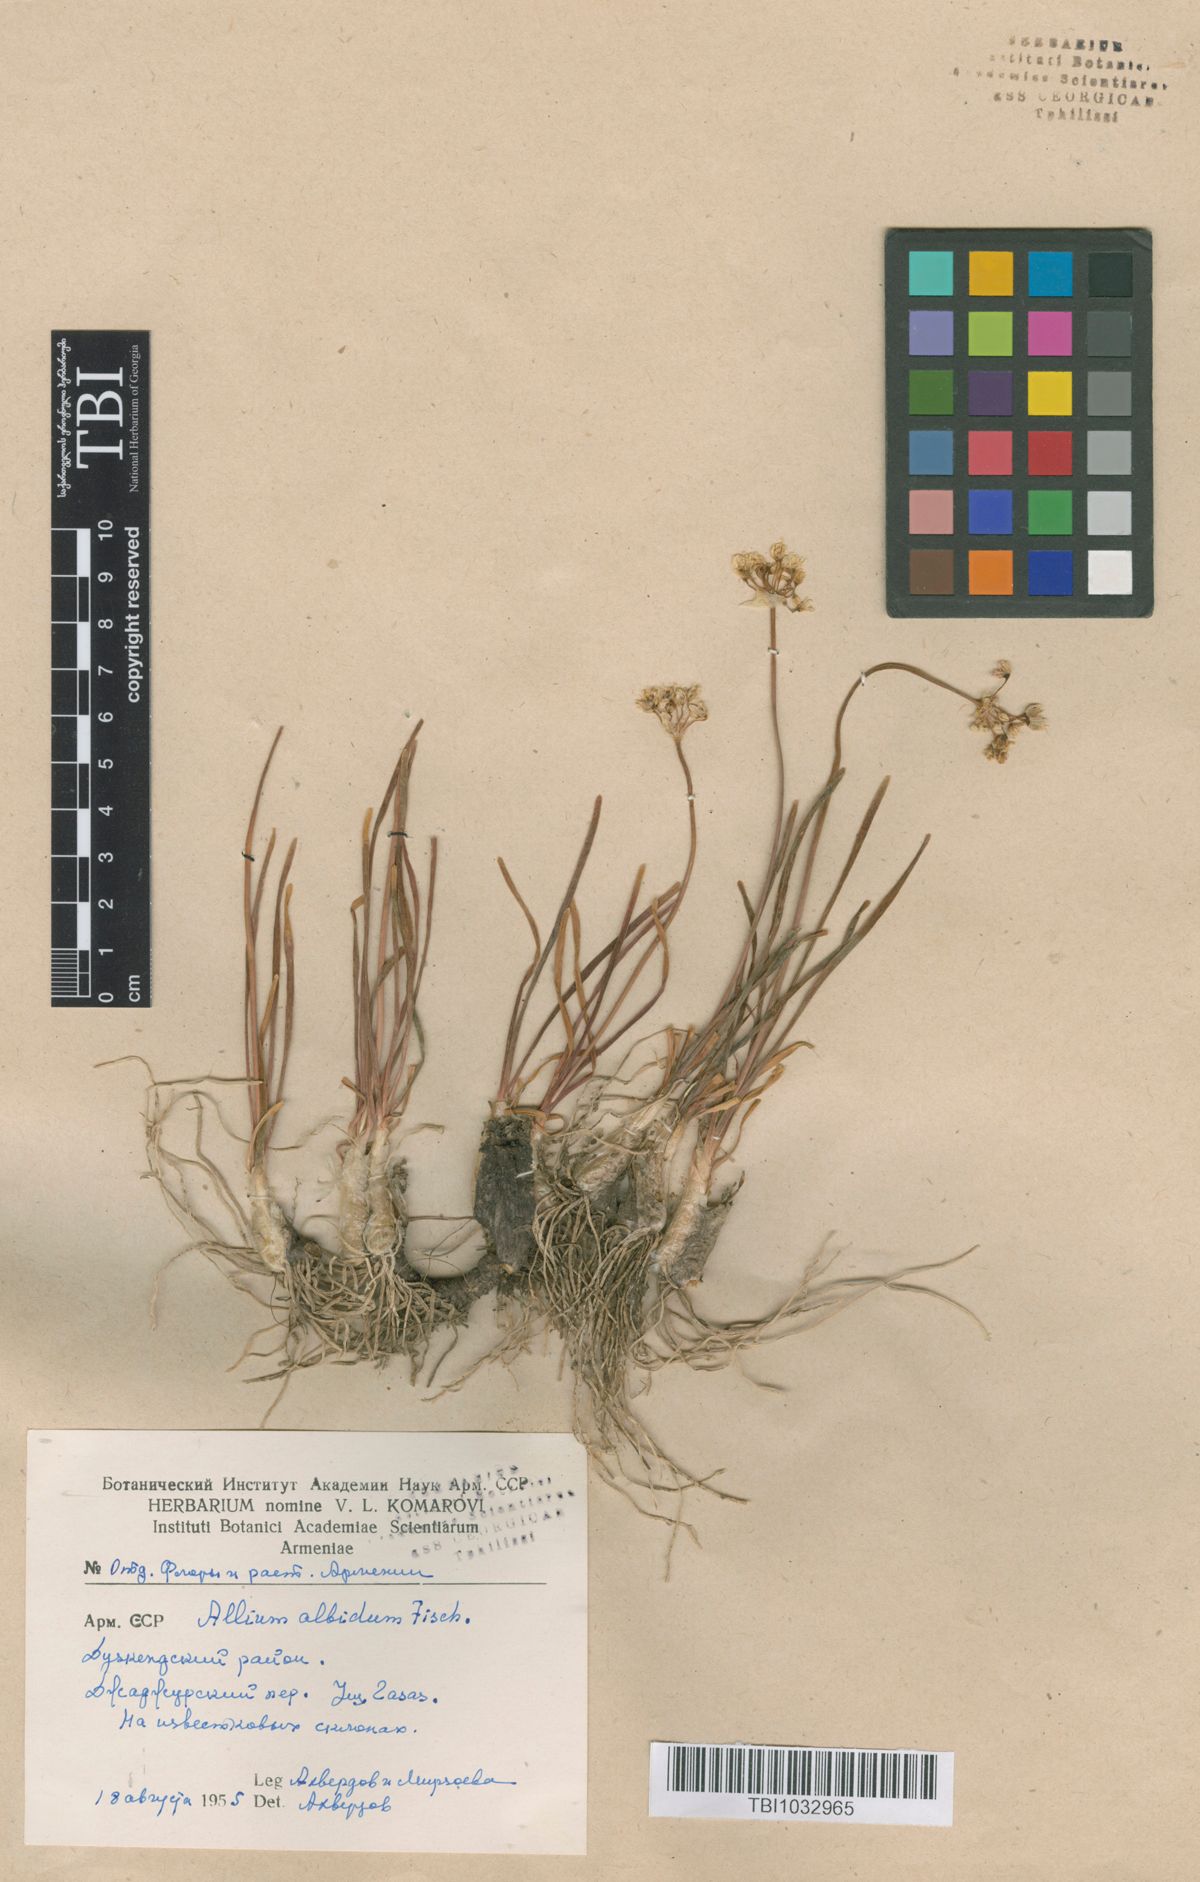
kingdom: Plantae
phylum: Tracheophyta
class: Liliopsida
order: Asparagales
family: Amaryllidaceae
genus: Allium
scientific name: Allium denudatum
